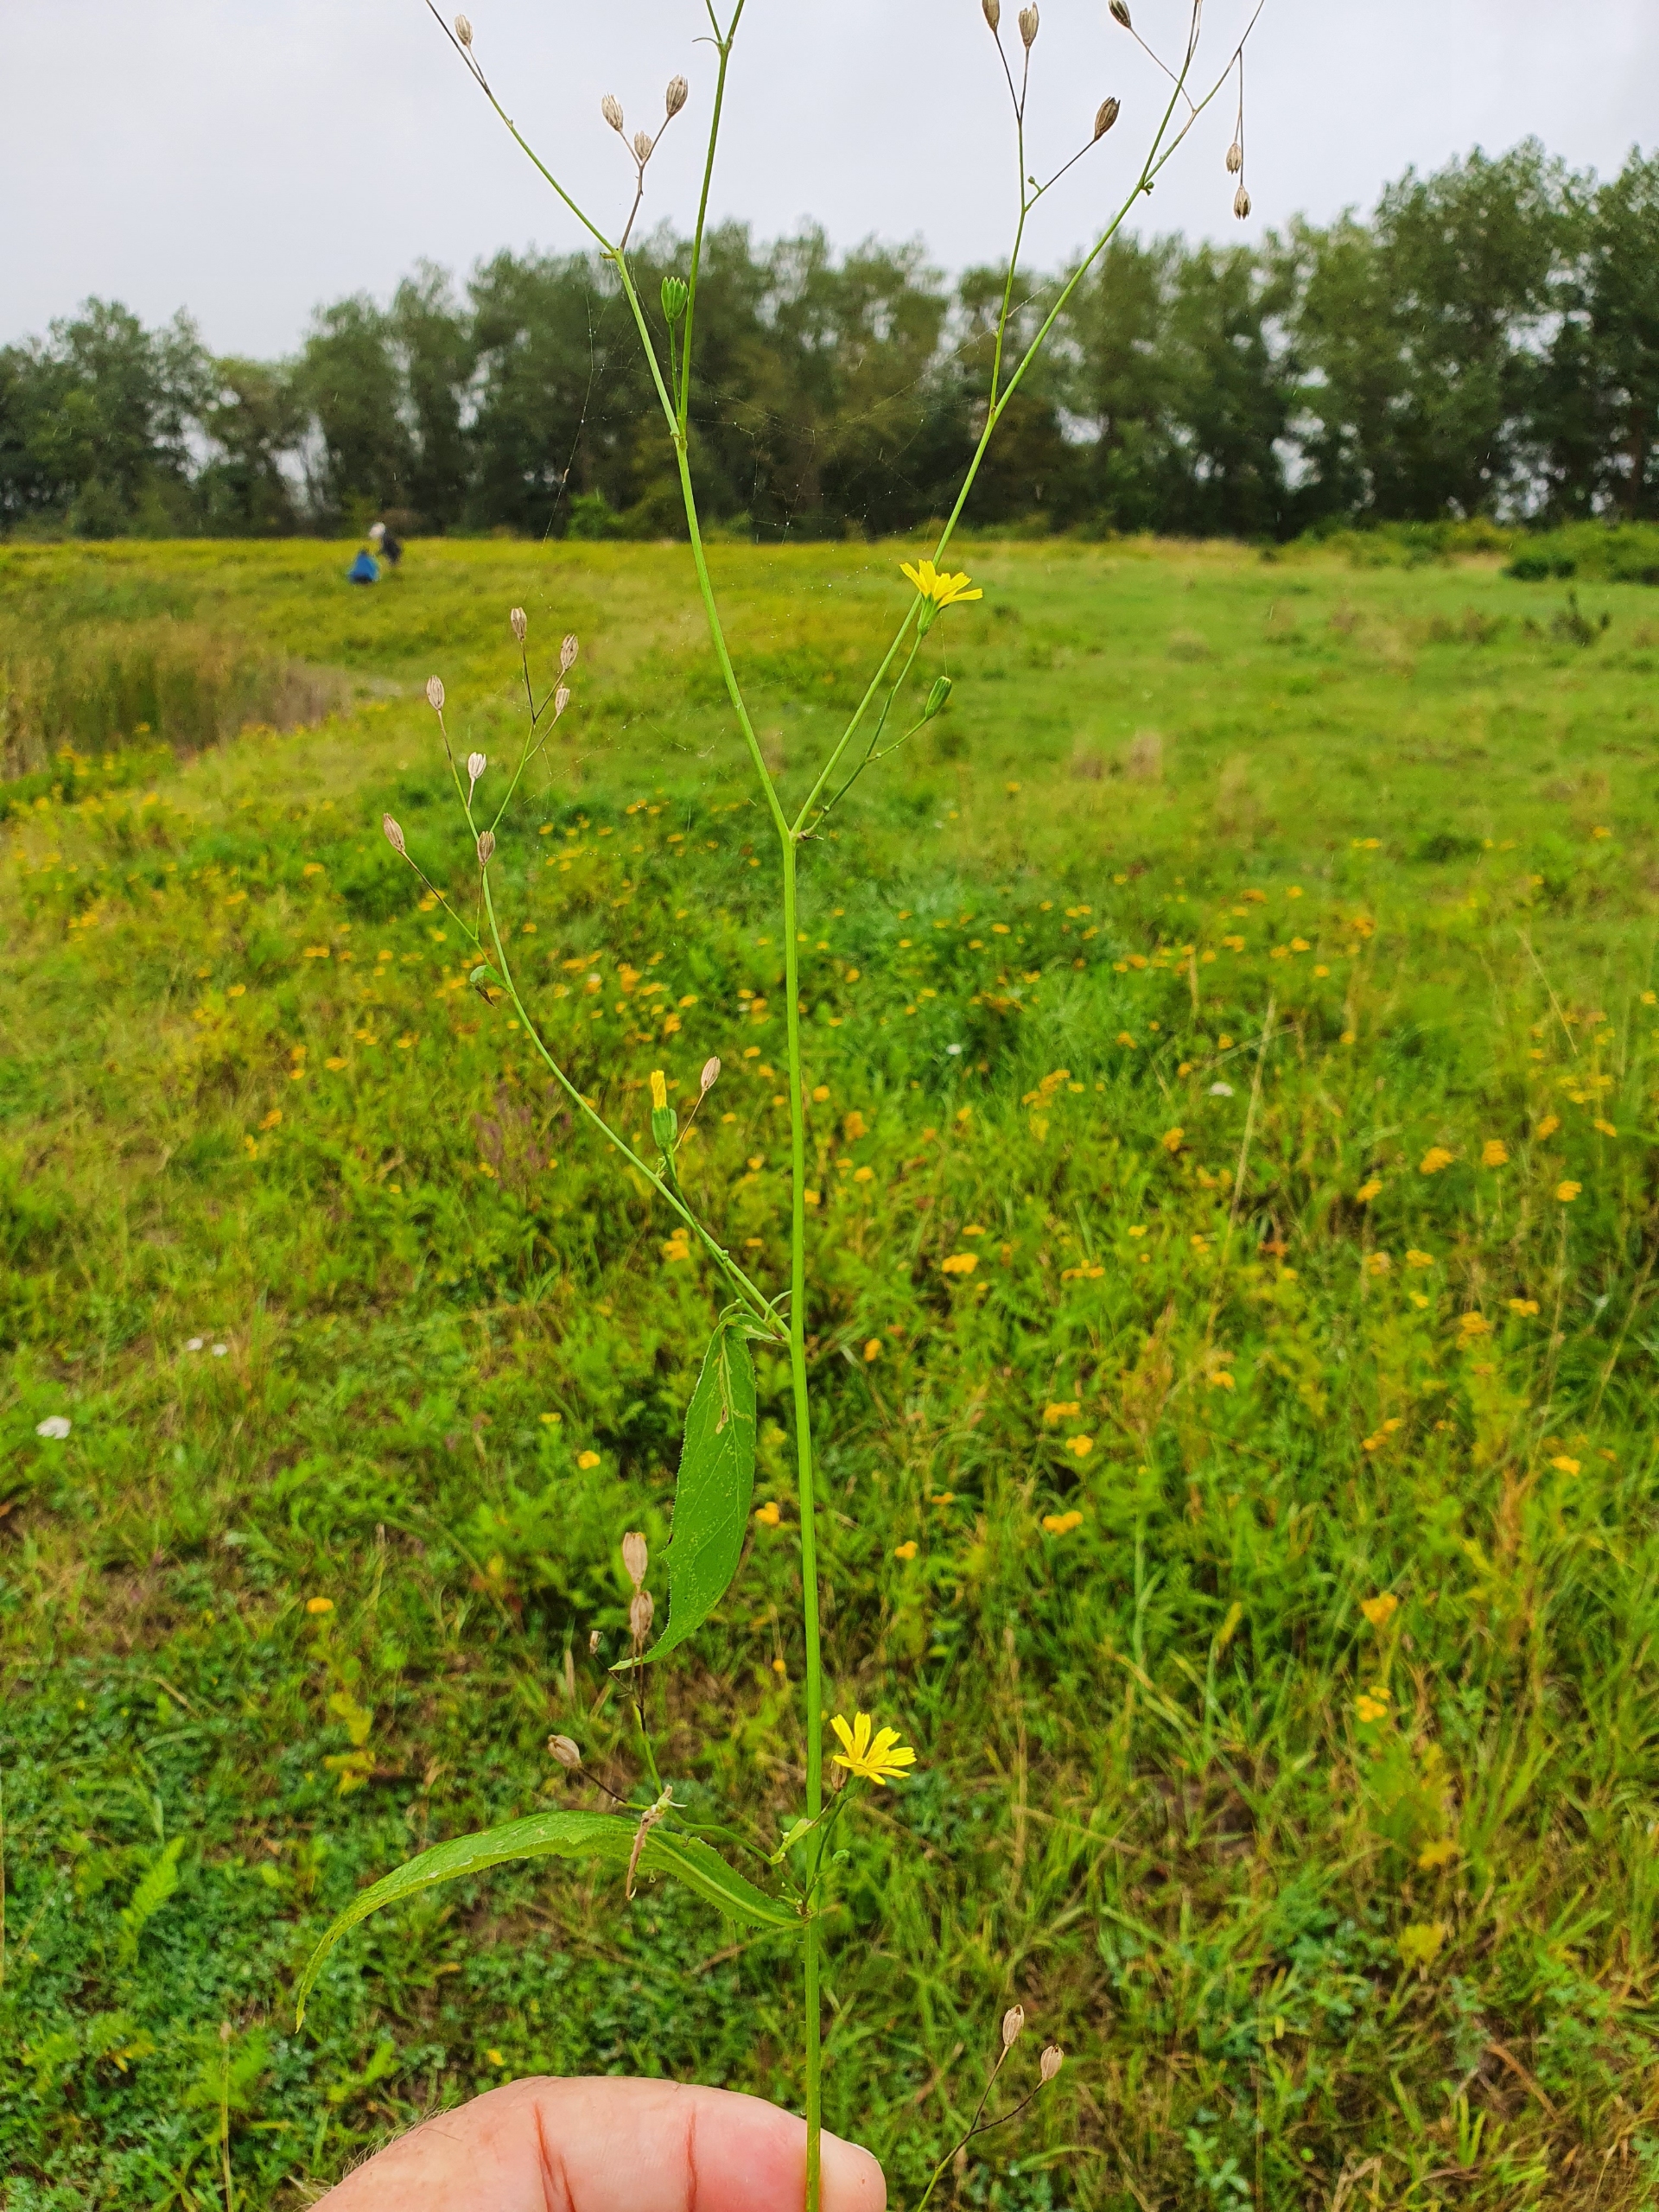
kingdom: Plantae
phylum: Tracheophyta
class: Magnoliopsida
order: Asterales
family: Asteraceae
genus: Lapsana
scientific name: Lapsana communis
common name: Haremad
